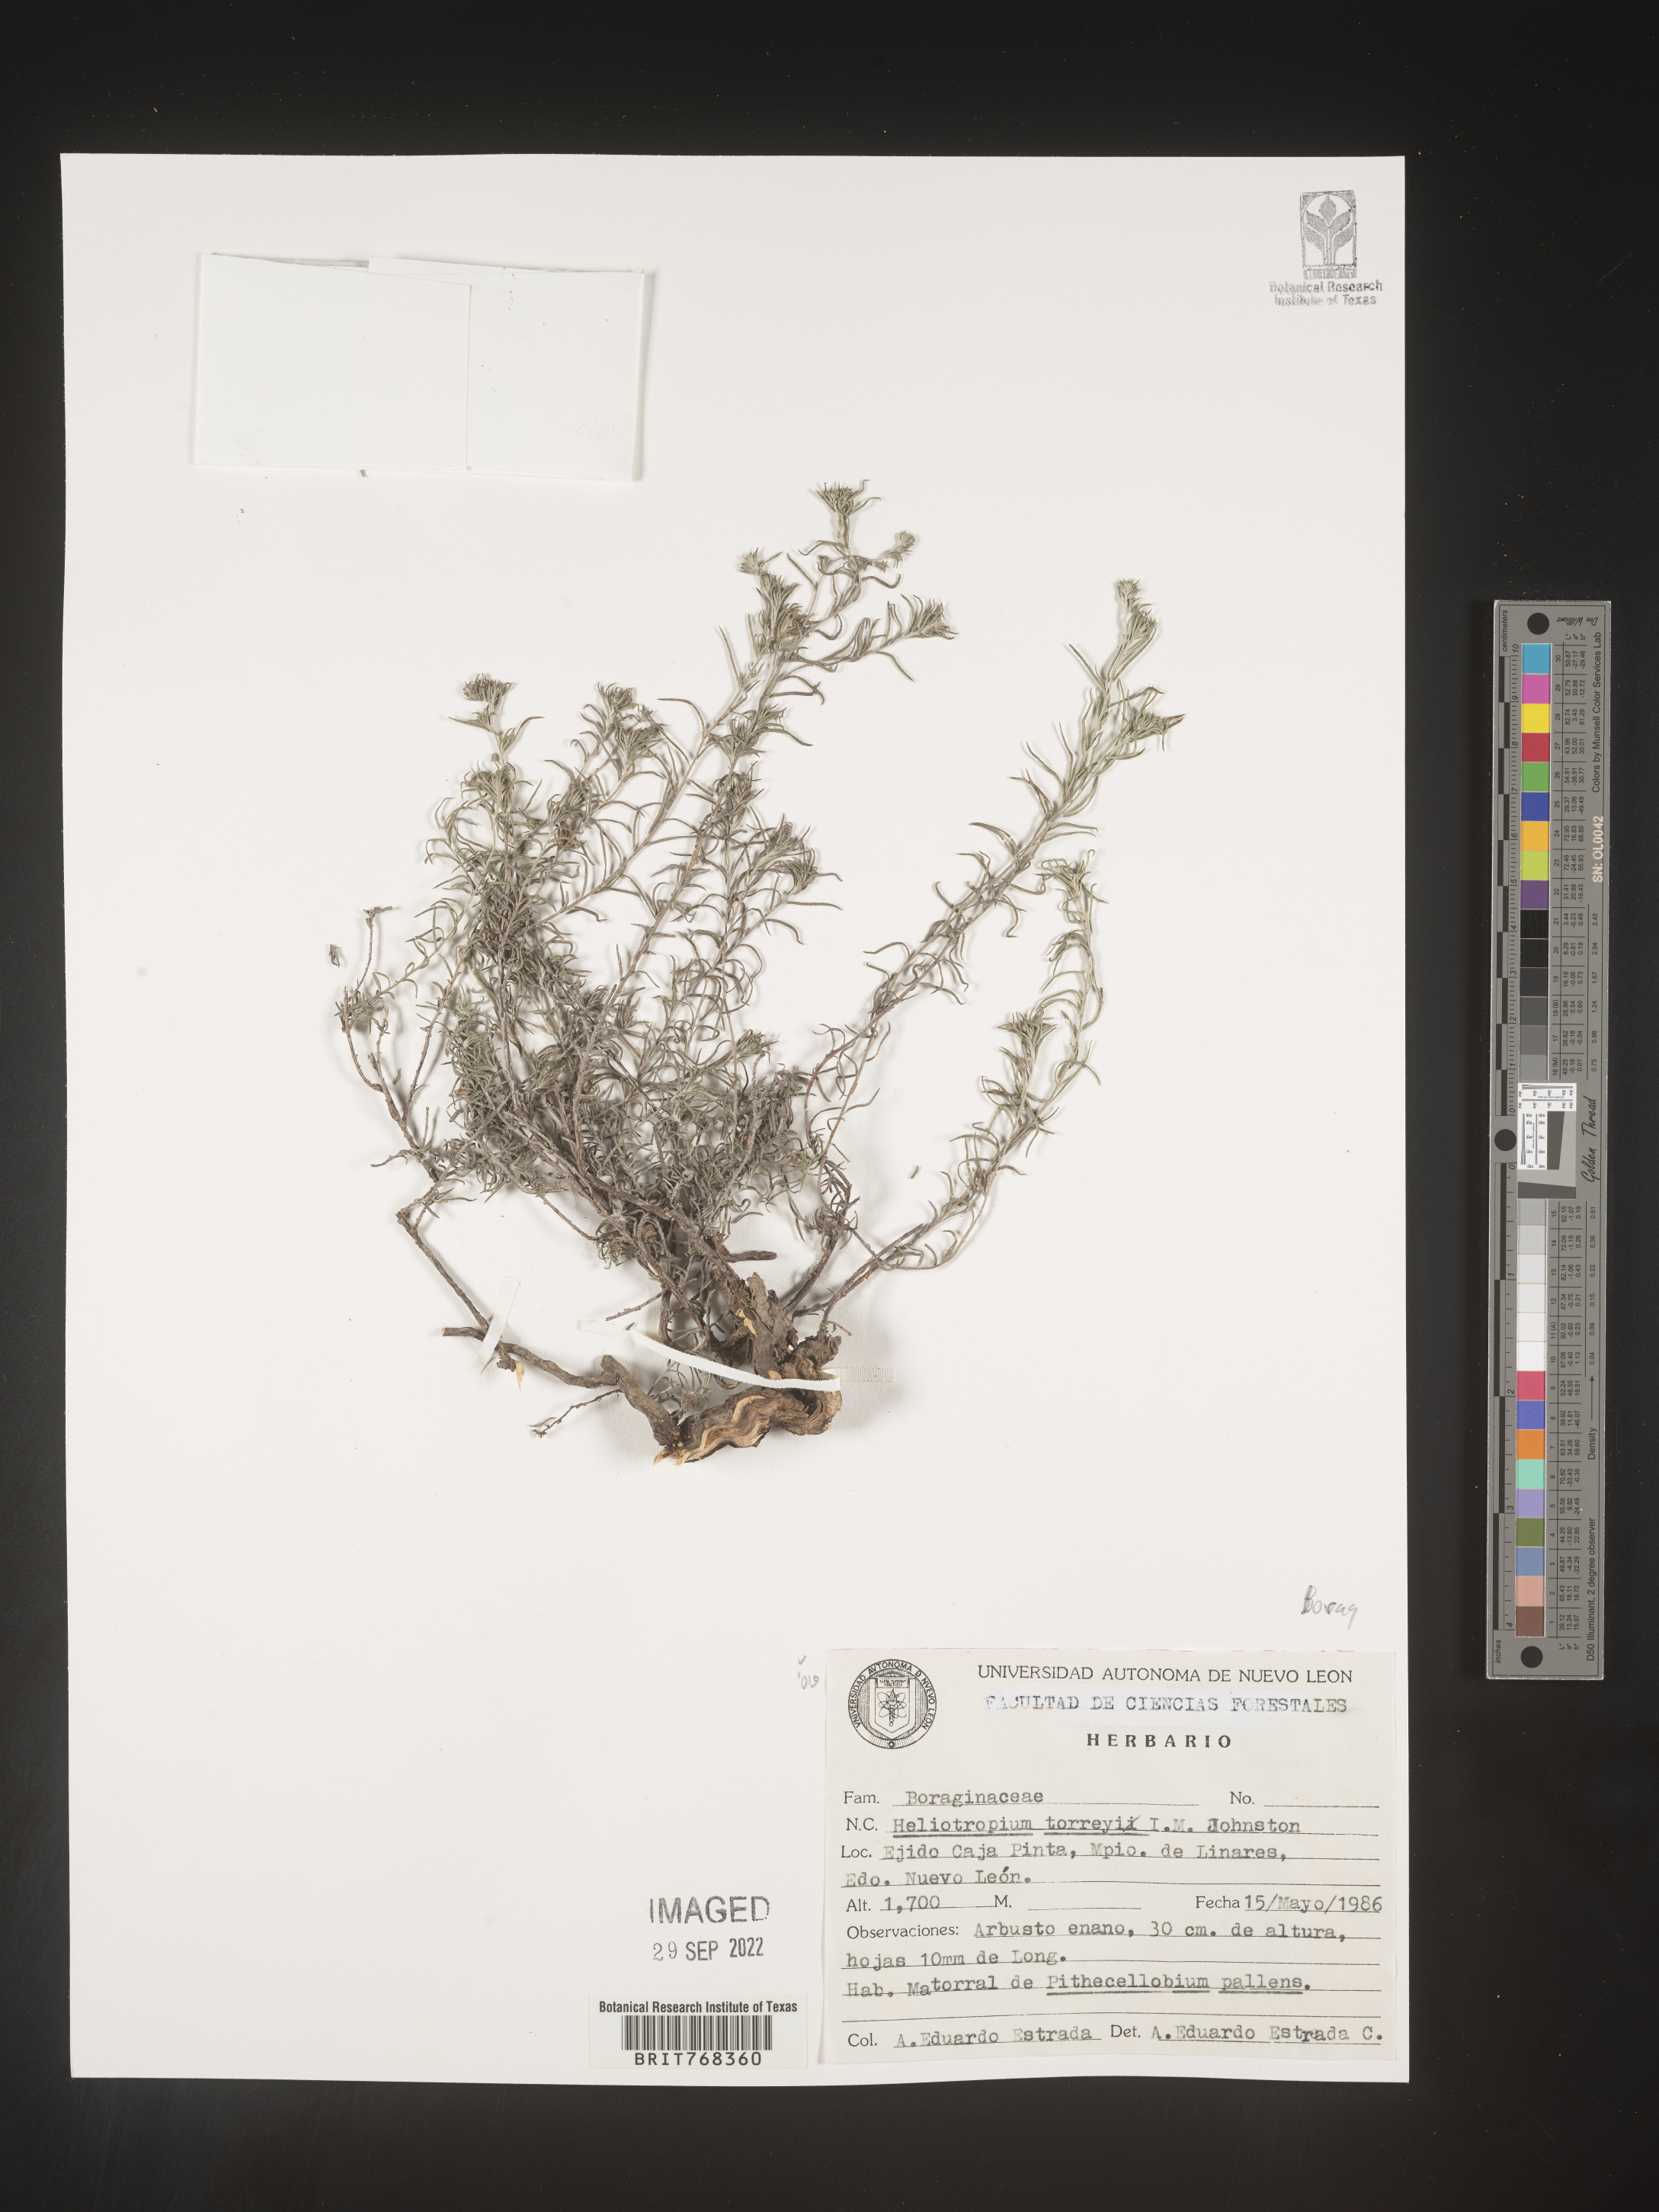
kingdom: Plantae
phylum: Tracheophyta
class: Magnoliopsida
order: Boraginales
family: Heliotropiaceae
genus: Heliotropium
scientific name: Heliotropium
